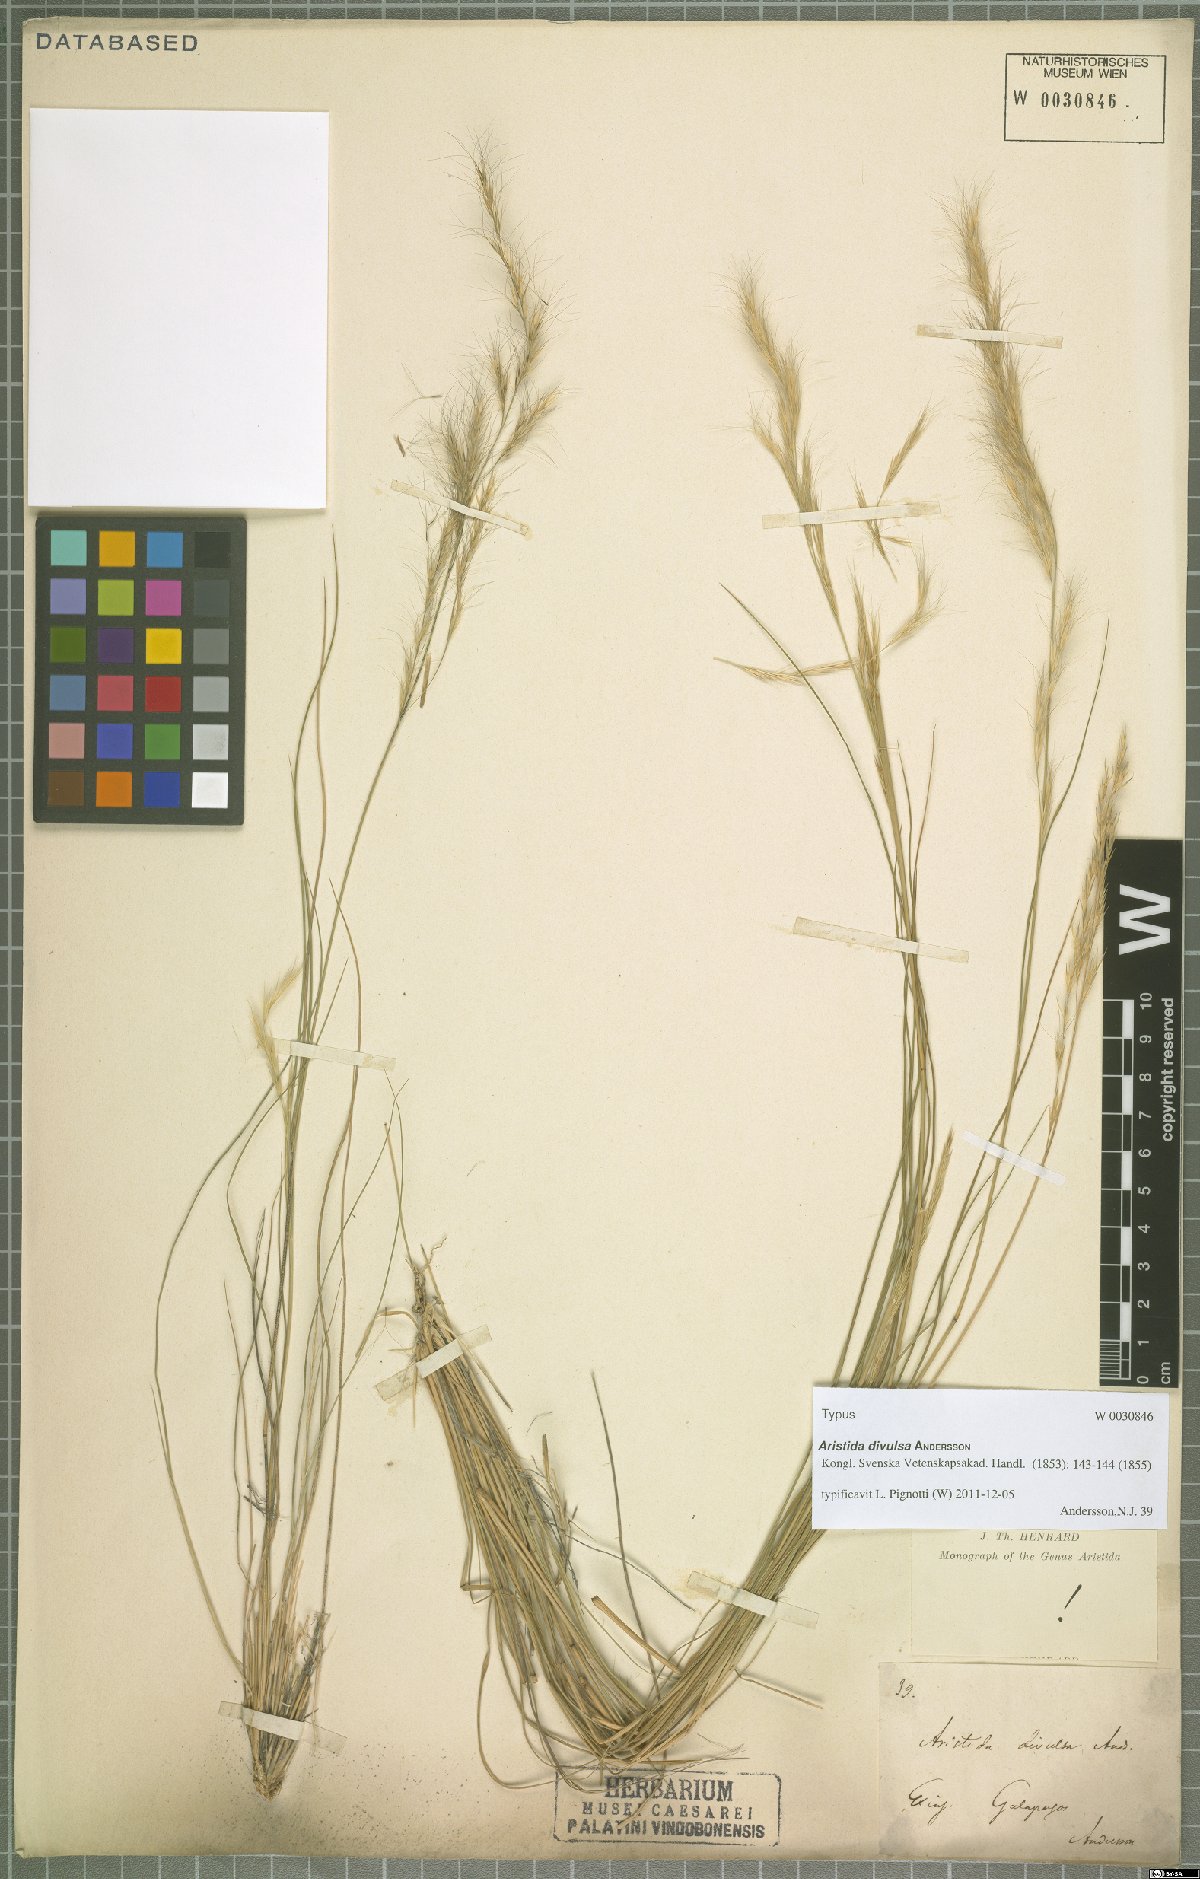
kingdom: Plantae
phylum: Tracheophyta
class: Liliopsida
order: Poales
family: Poaceae
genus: Aristida
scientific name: Aristida divulsa
